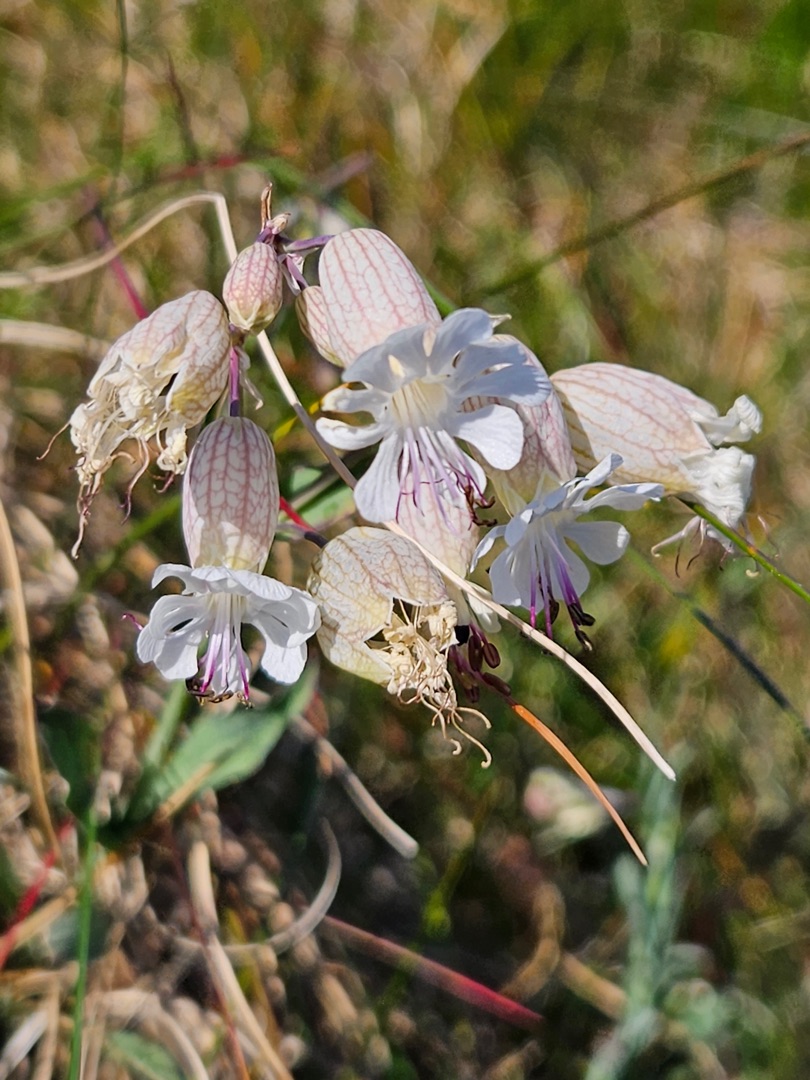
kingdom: Plantae
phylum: Tracheophyta
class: Magnoliopsida
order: Caryophyllales
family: Caryophyllaceae
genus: Silene
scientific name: Silene vulgaris
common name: Blæresmælde
